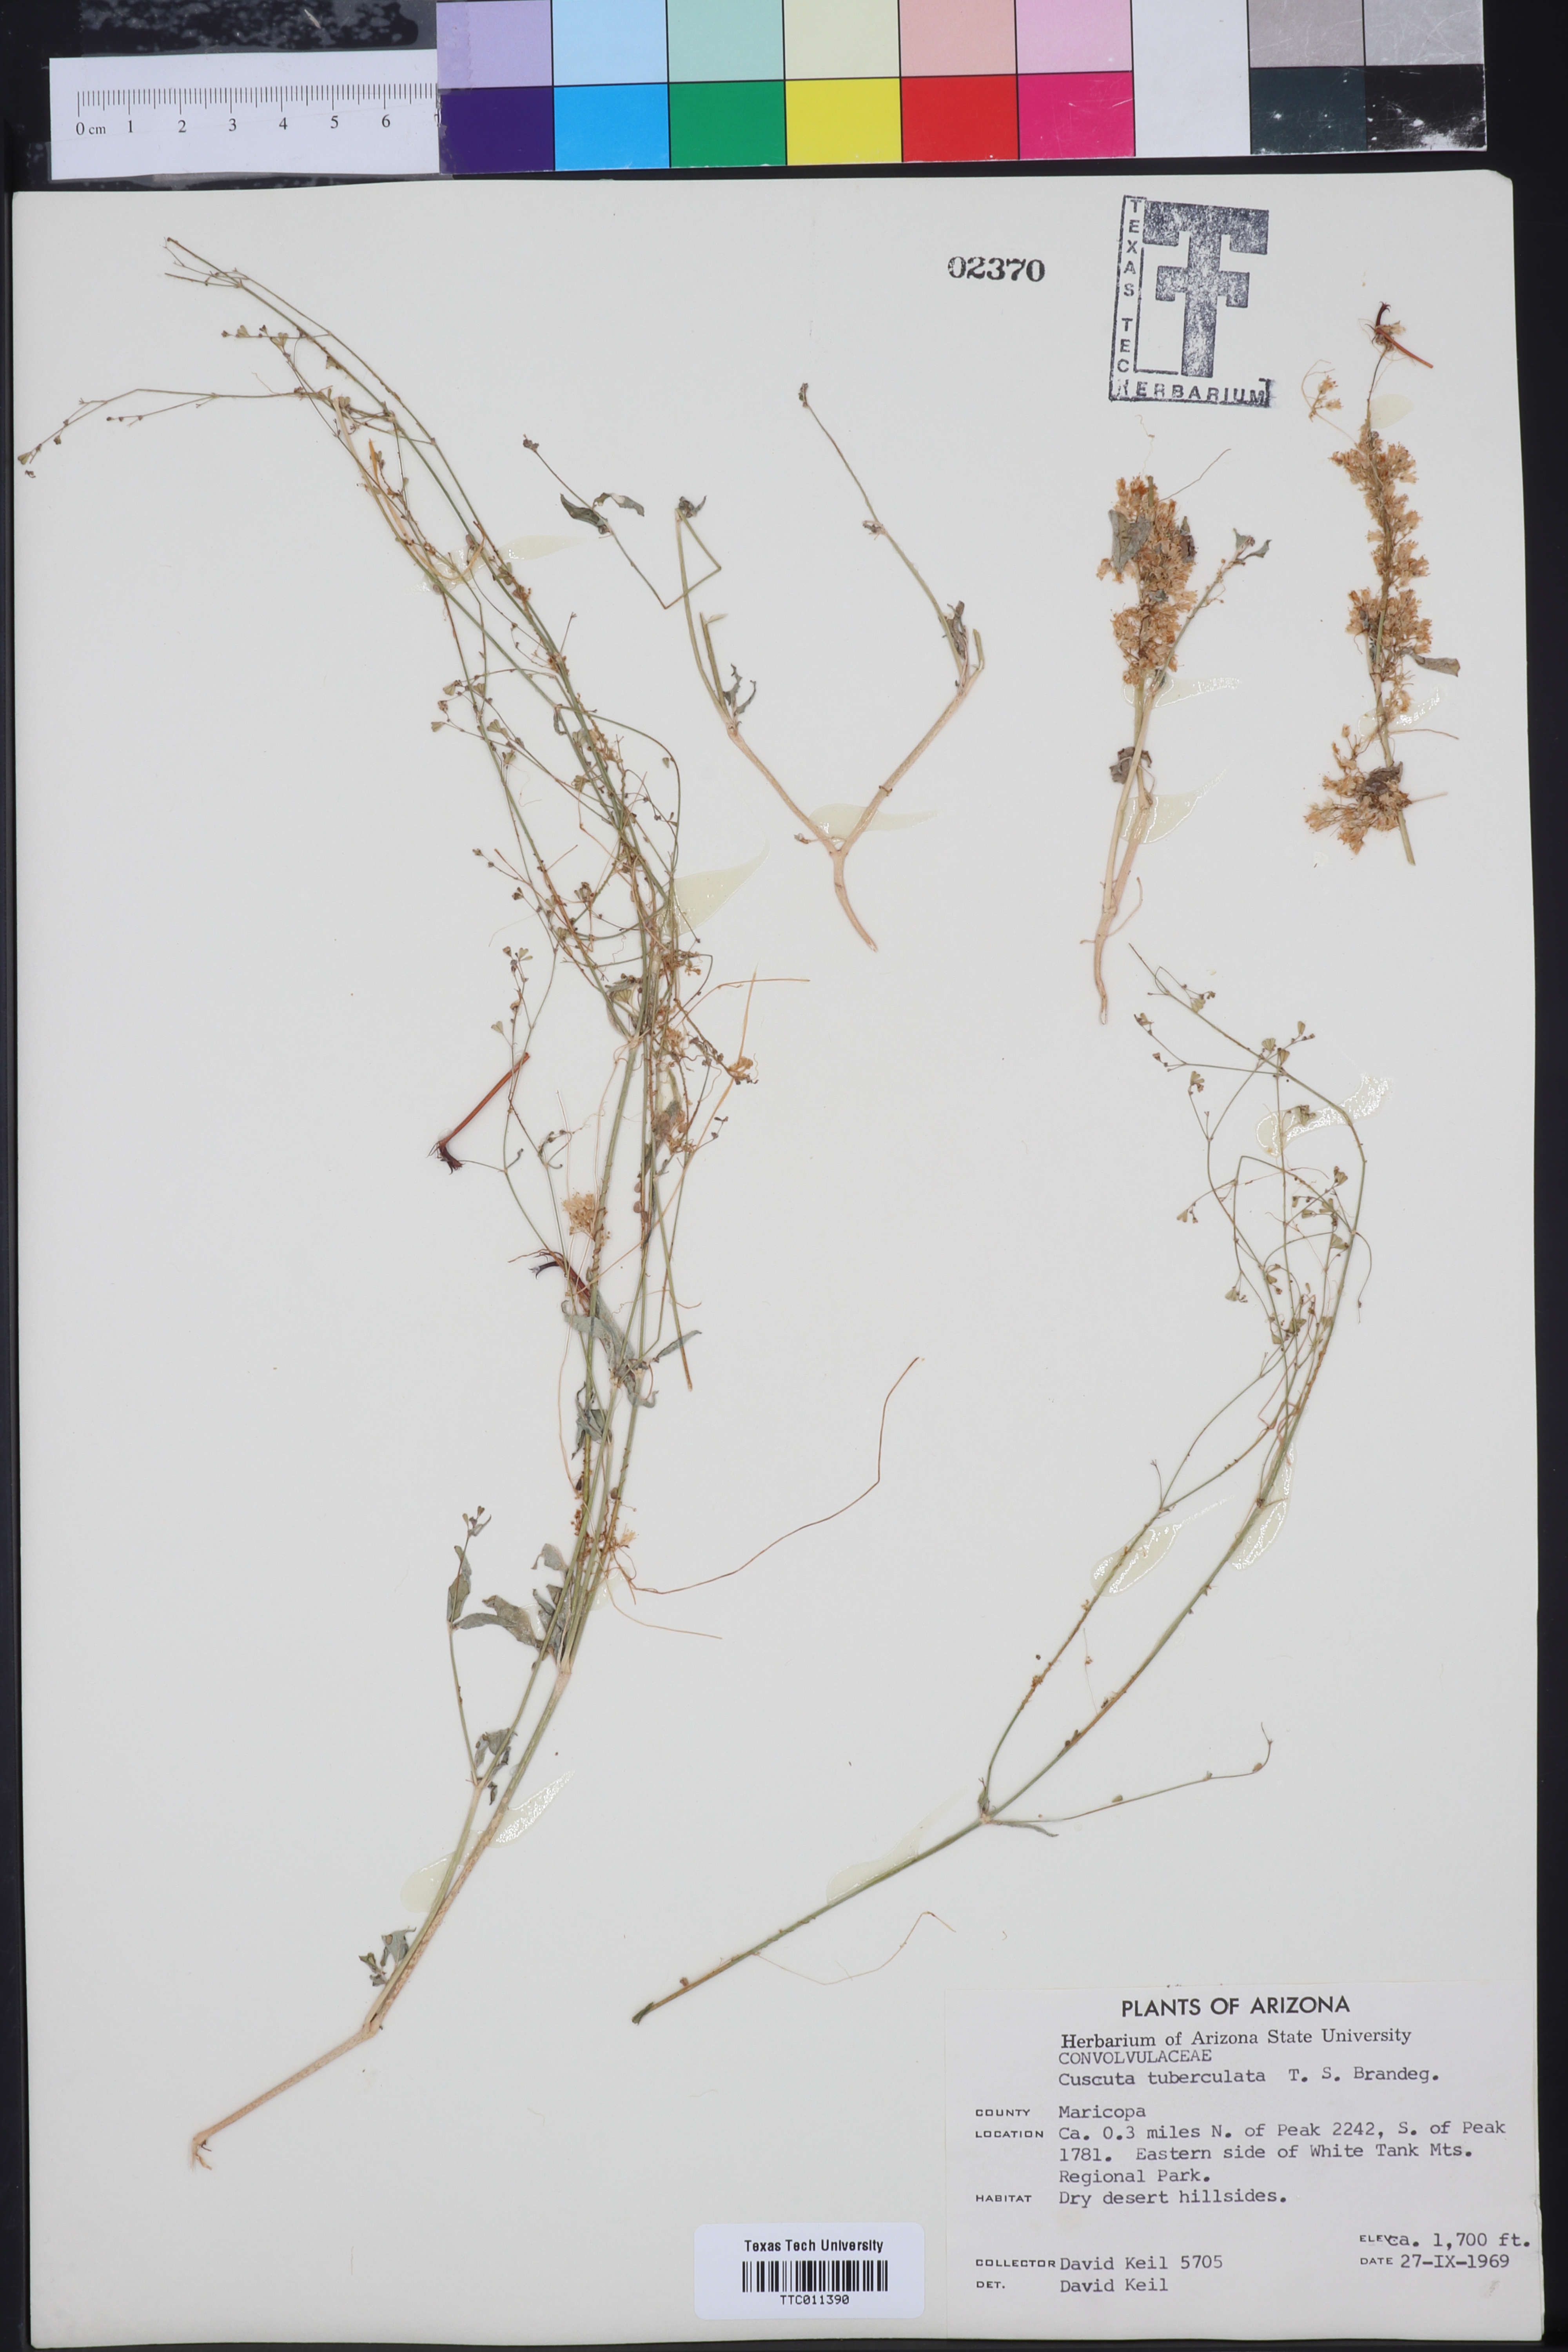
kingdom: Plantae
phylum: Tracheophyta
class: Magnoliopsida
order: Solanales
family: Convolvulaceae
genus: Cuscuta
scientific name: Cuscuta tuberculata
